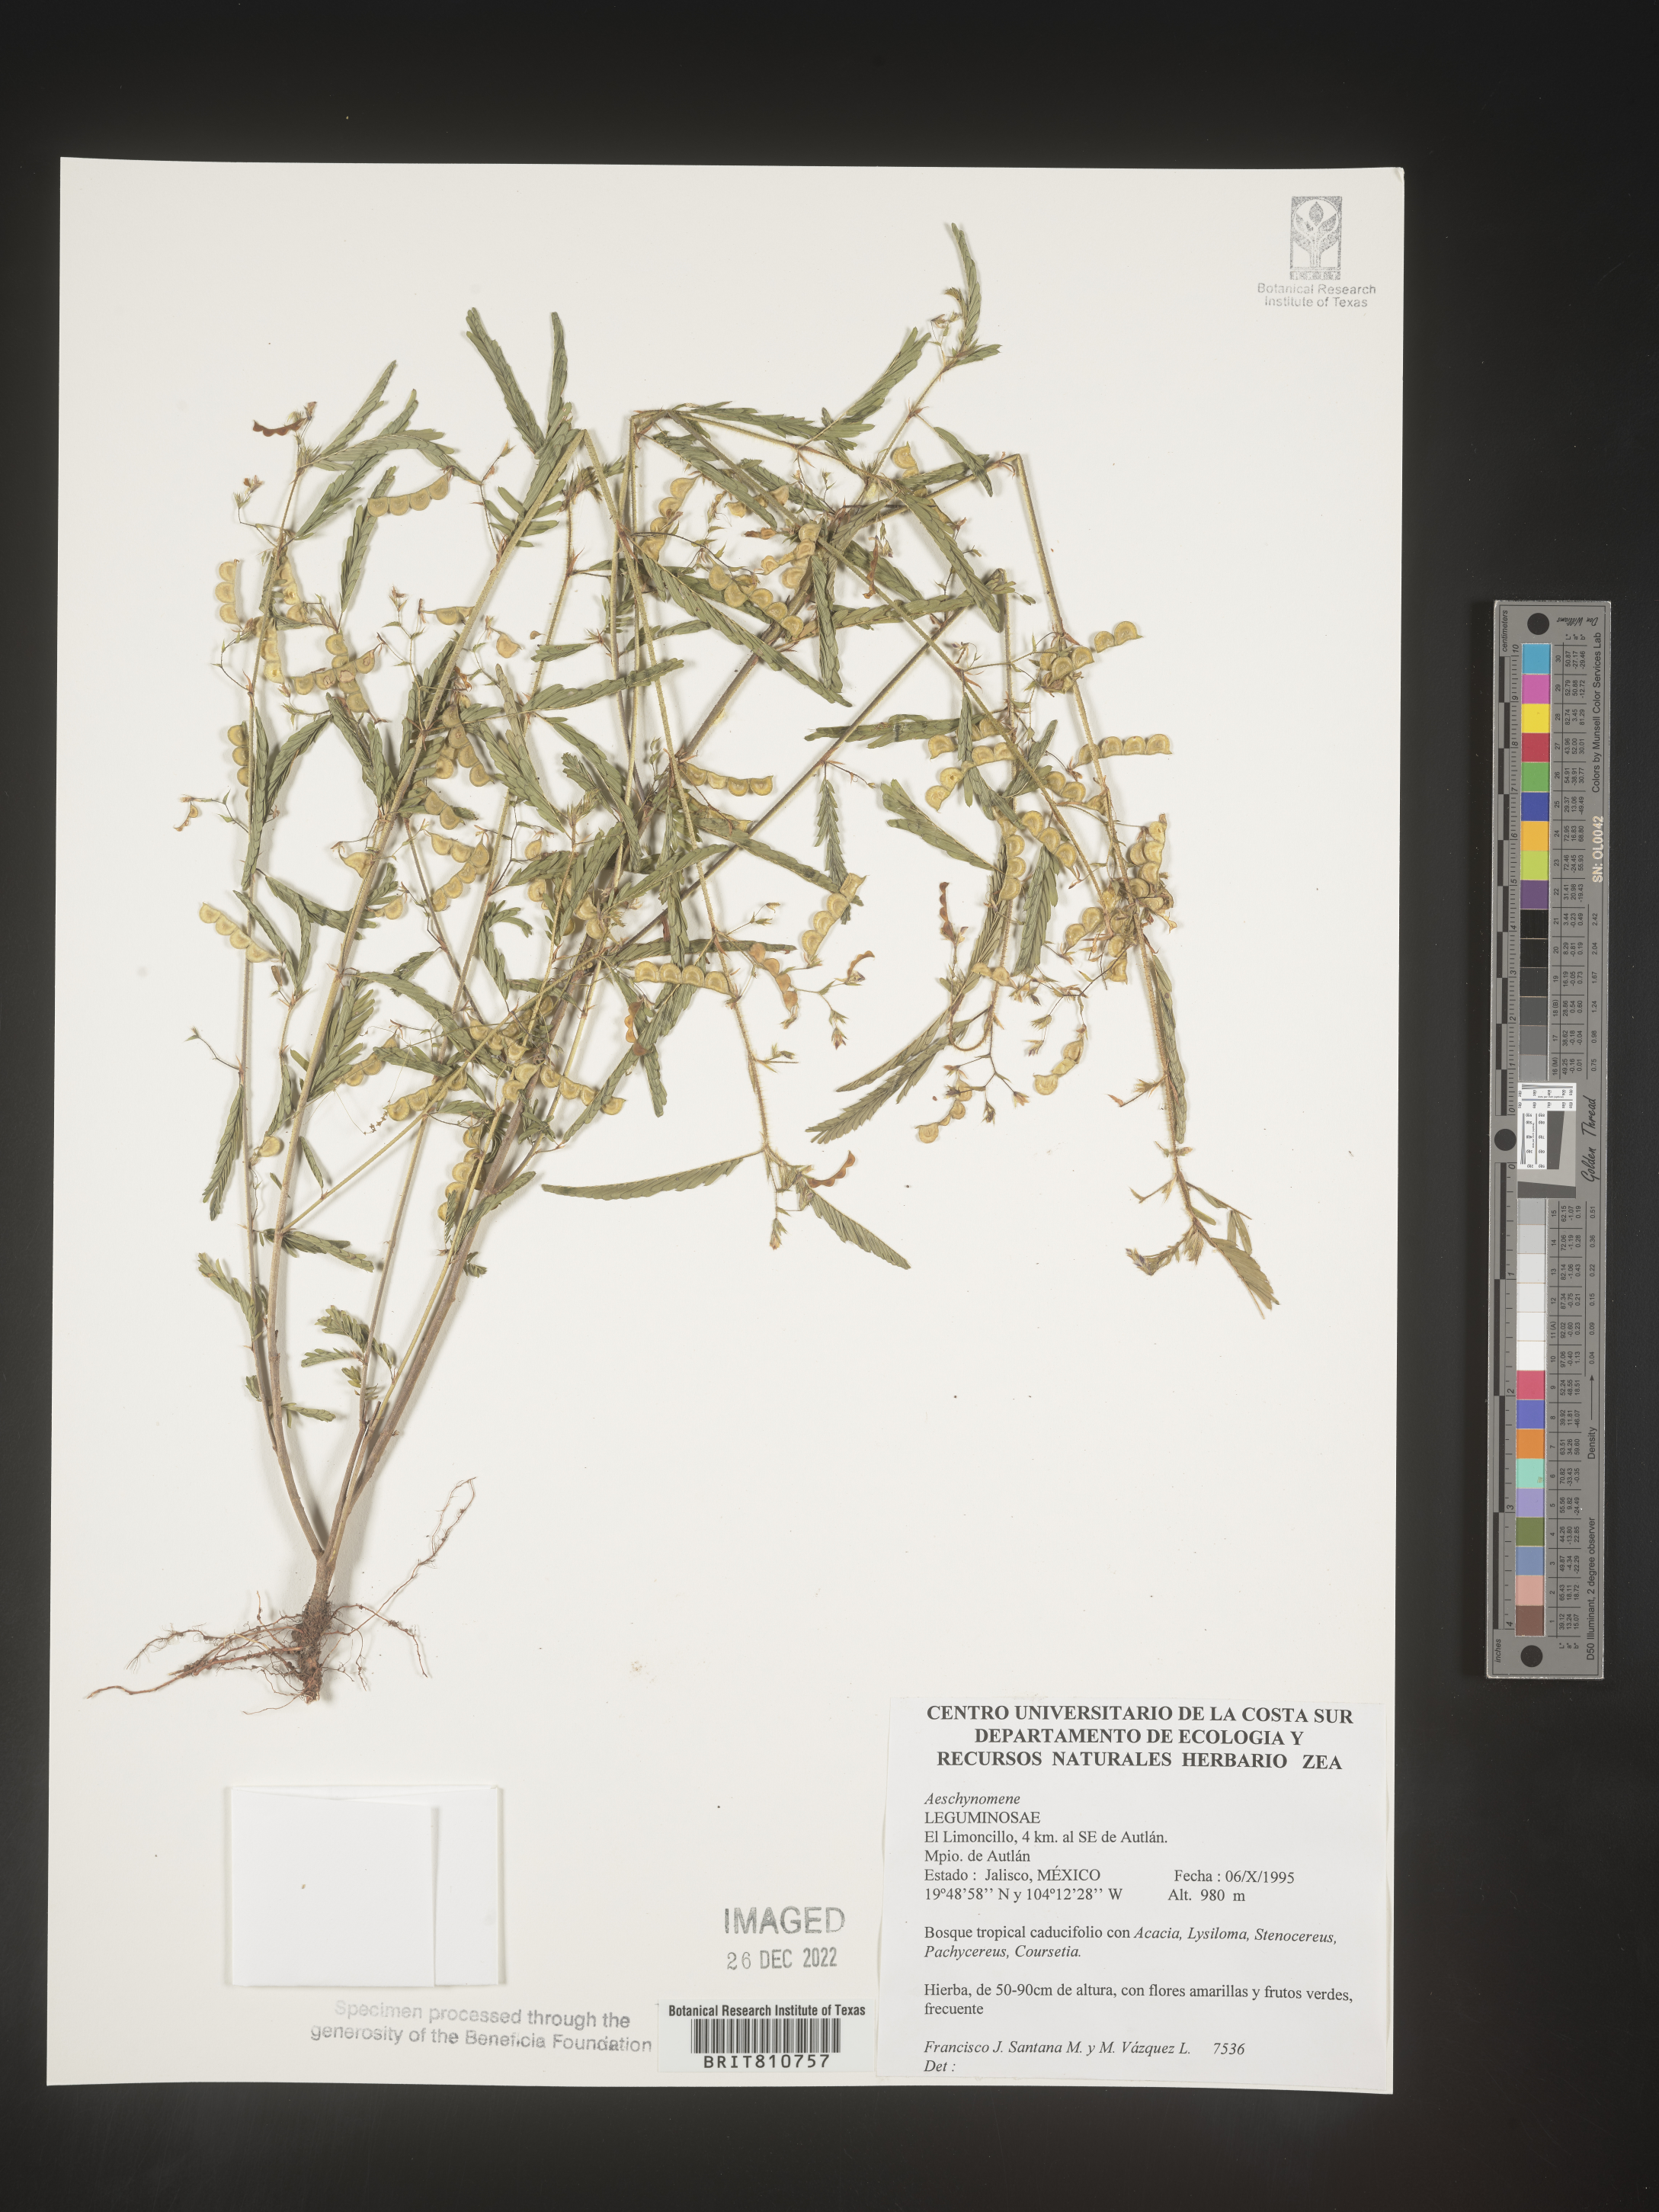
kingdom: Plantae
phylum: Tracheophyta
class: Magnoliopsida
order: Fabales
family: Fabaceae
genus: Aeschynomene
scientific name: Aeschynomene
